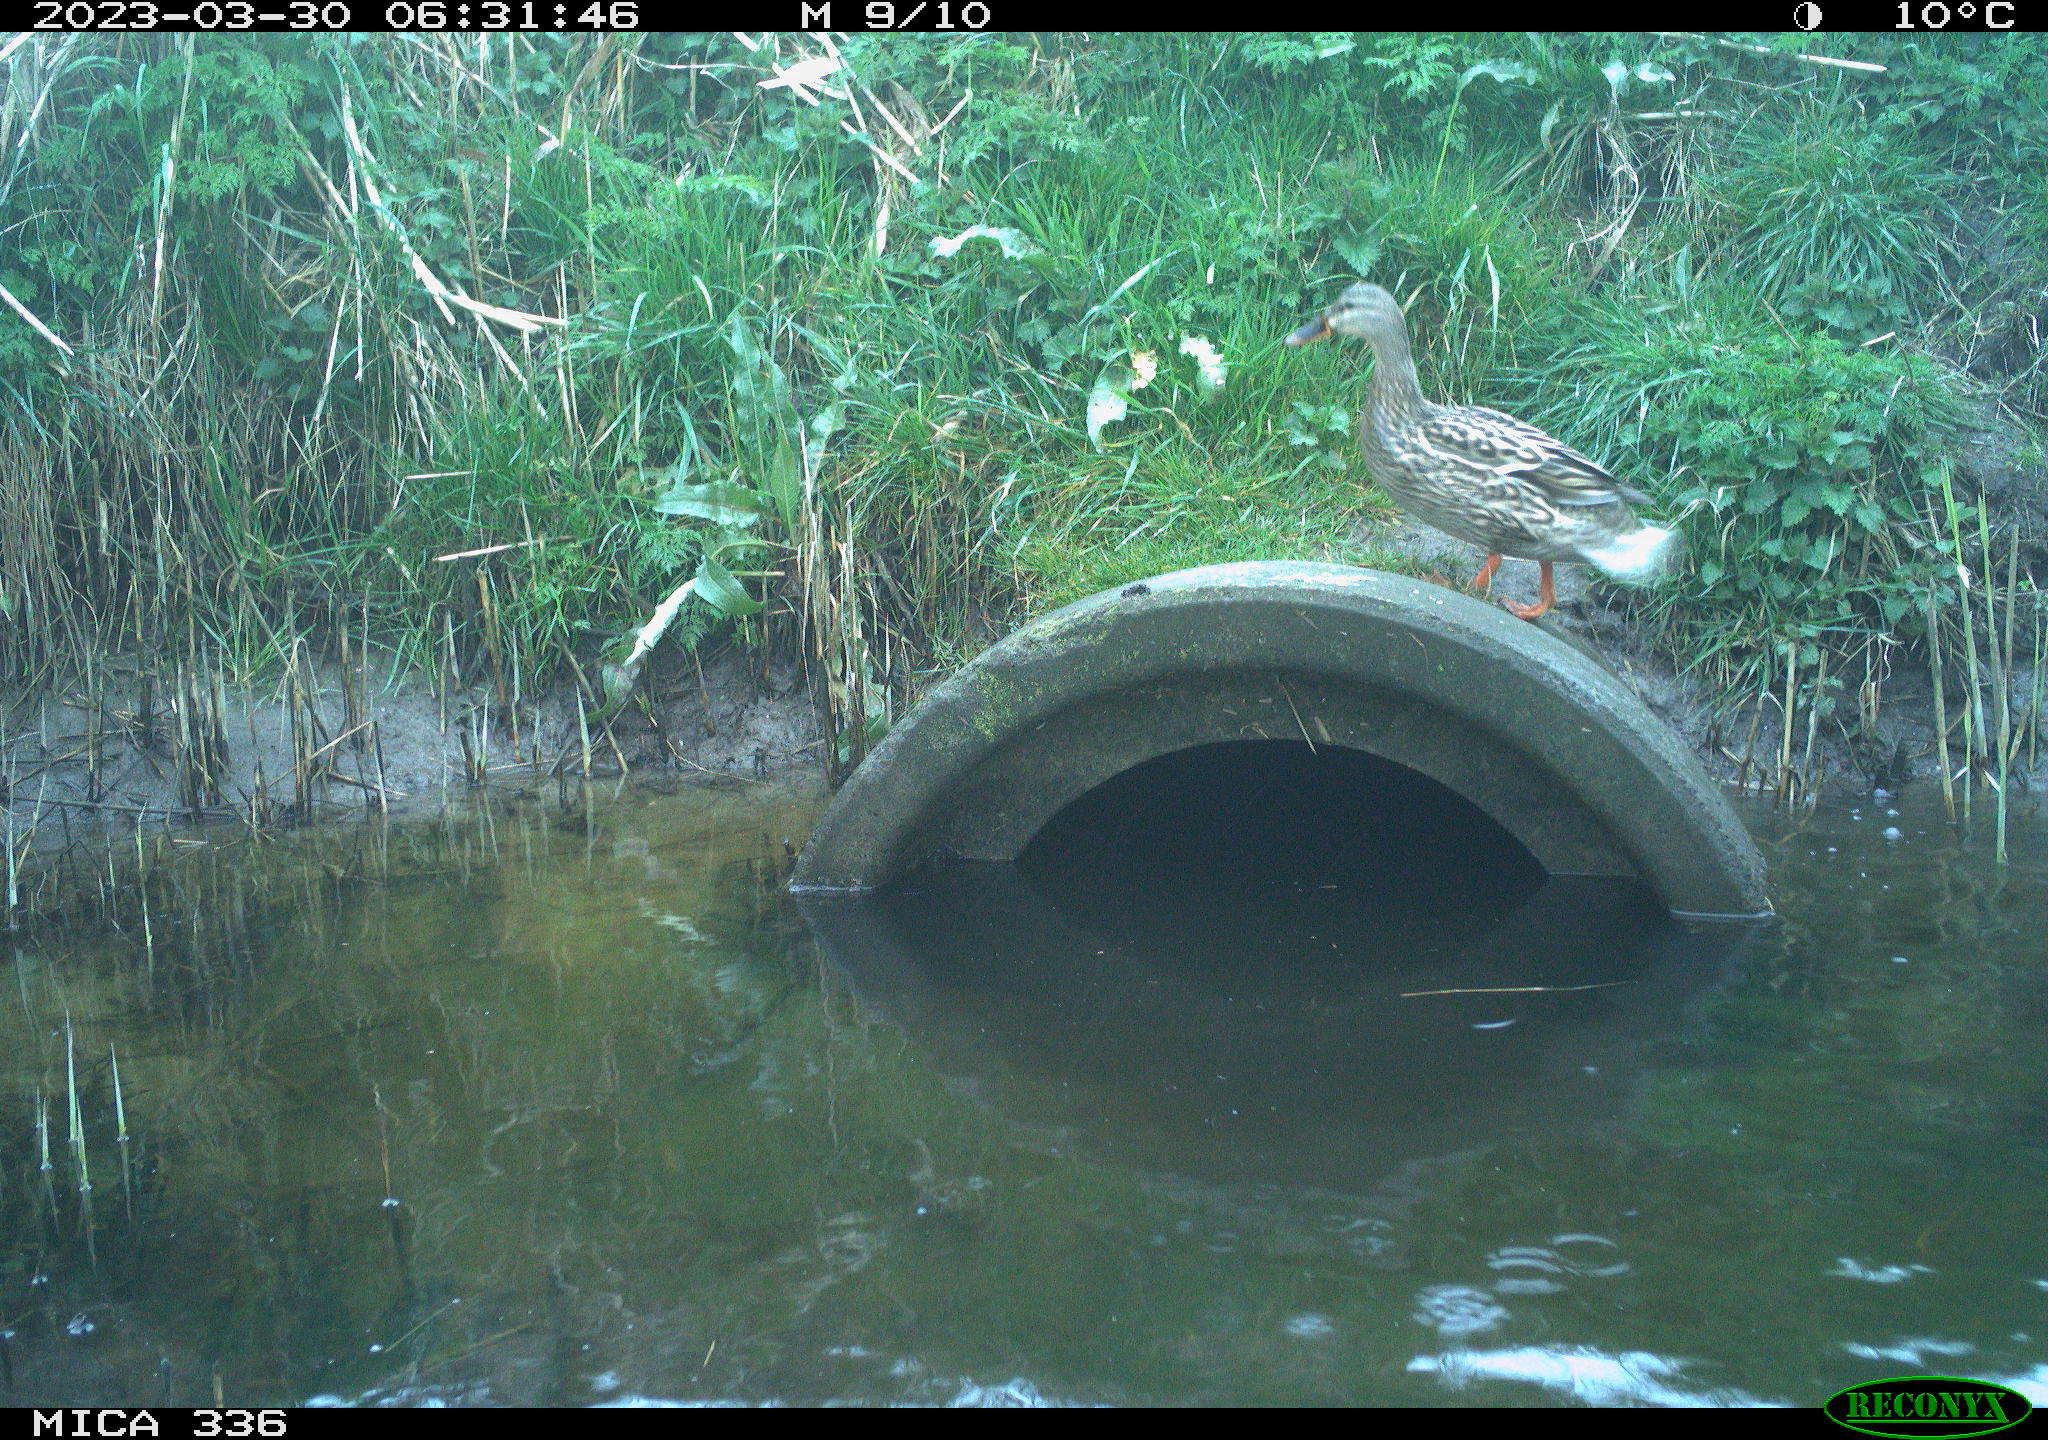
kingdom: Animalia
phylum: Chordata
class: Aves
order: Anseriformes
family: Anatidae
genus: Anas
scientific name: Anas
